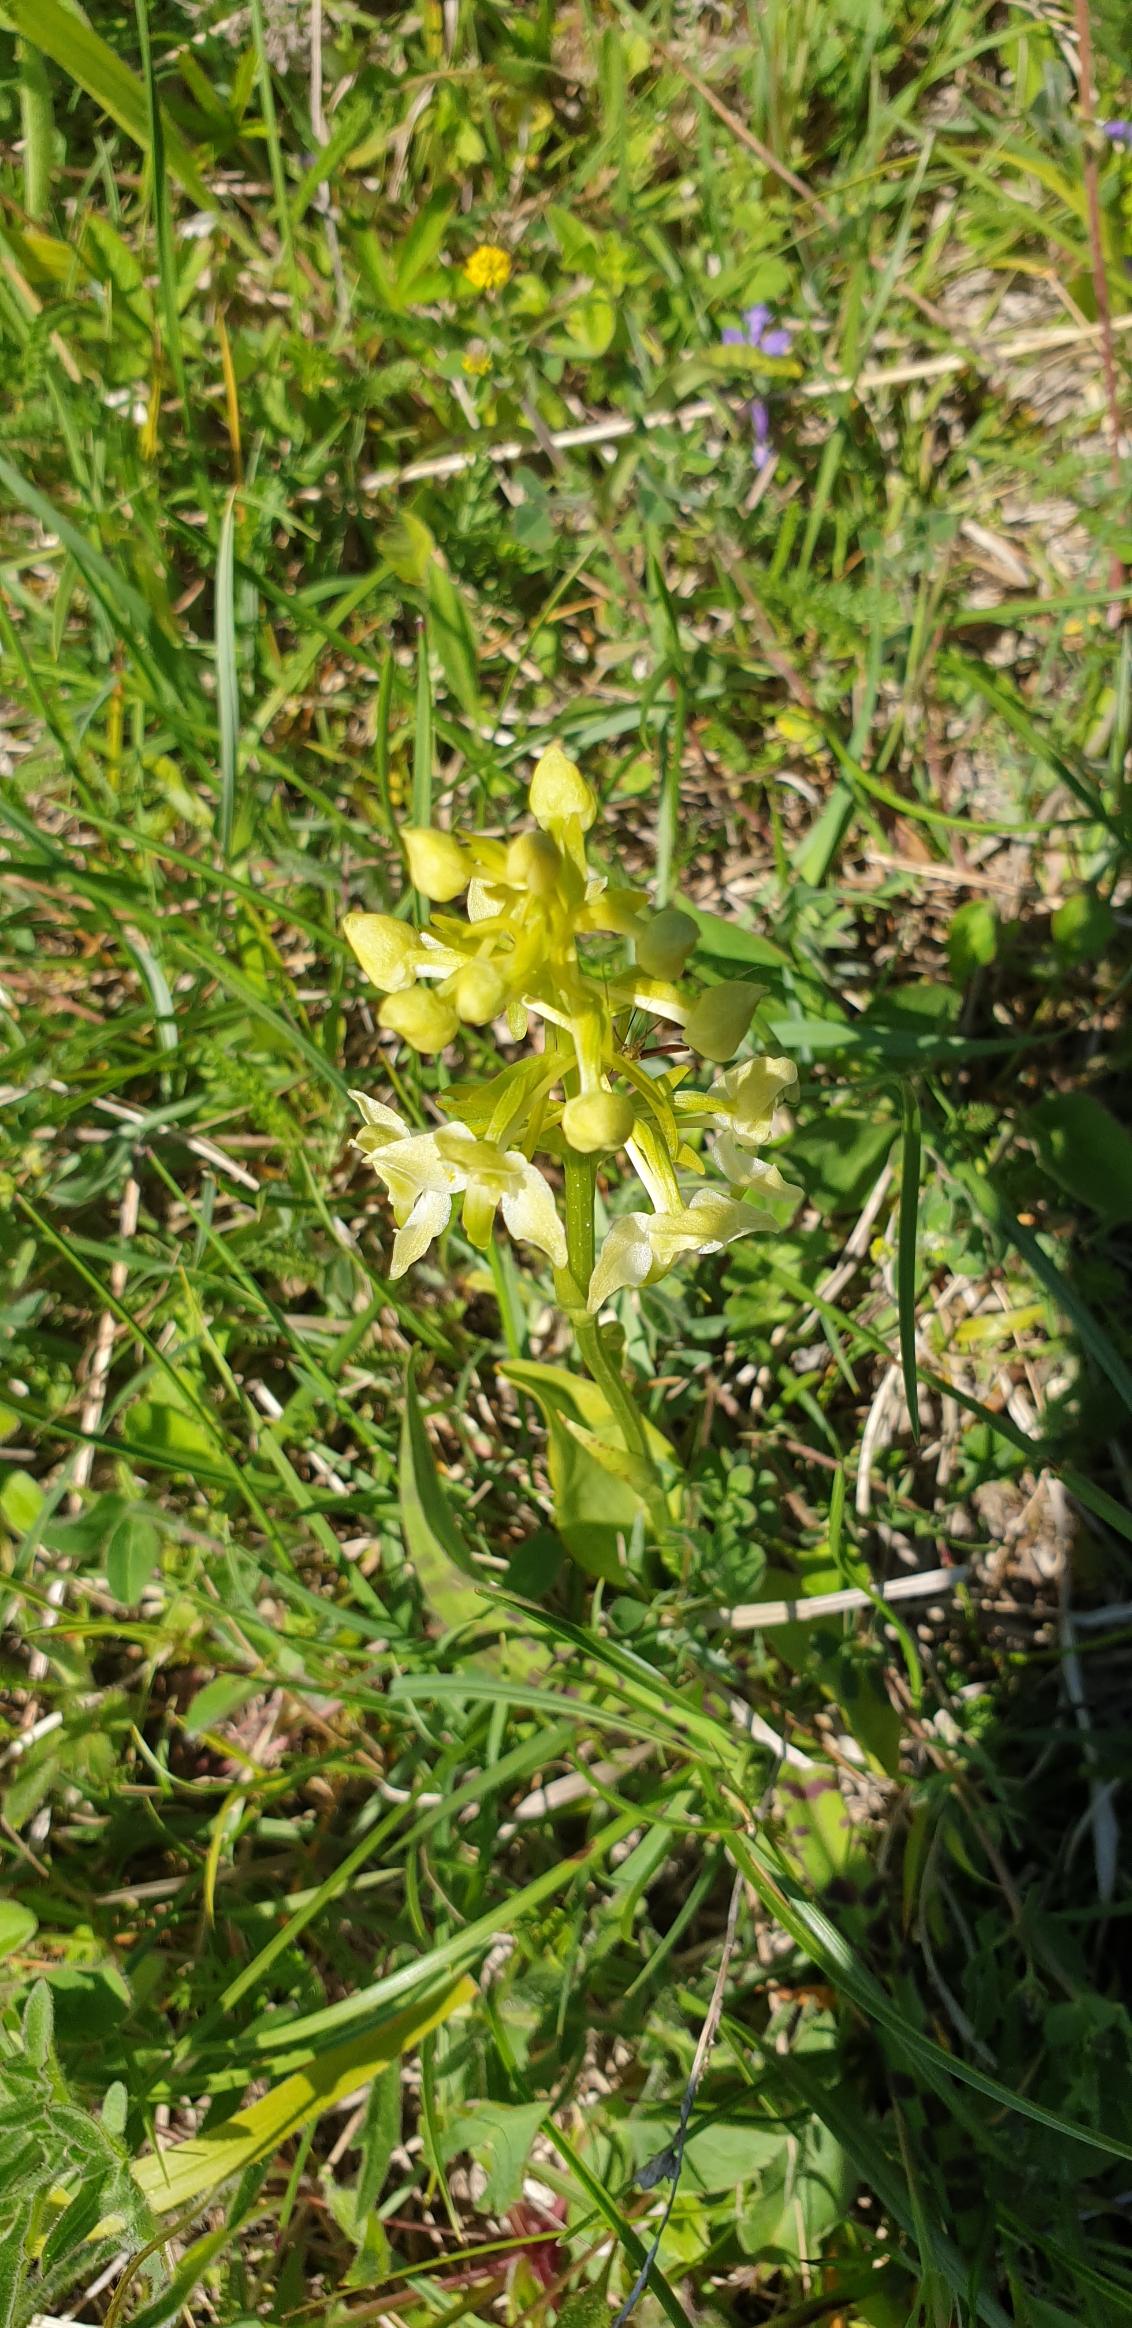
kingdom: Plantae
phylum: Tracheophyta
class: Liliopsida
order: Asparagales
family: Orchidaceae
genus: Platanthera
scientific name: Platanthera chlorantha
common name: Skov-gøgelilje
